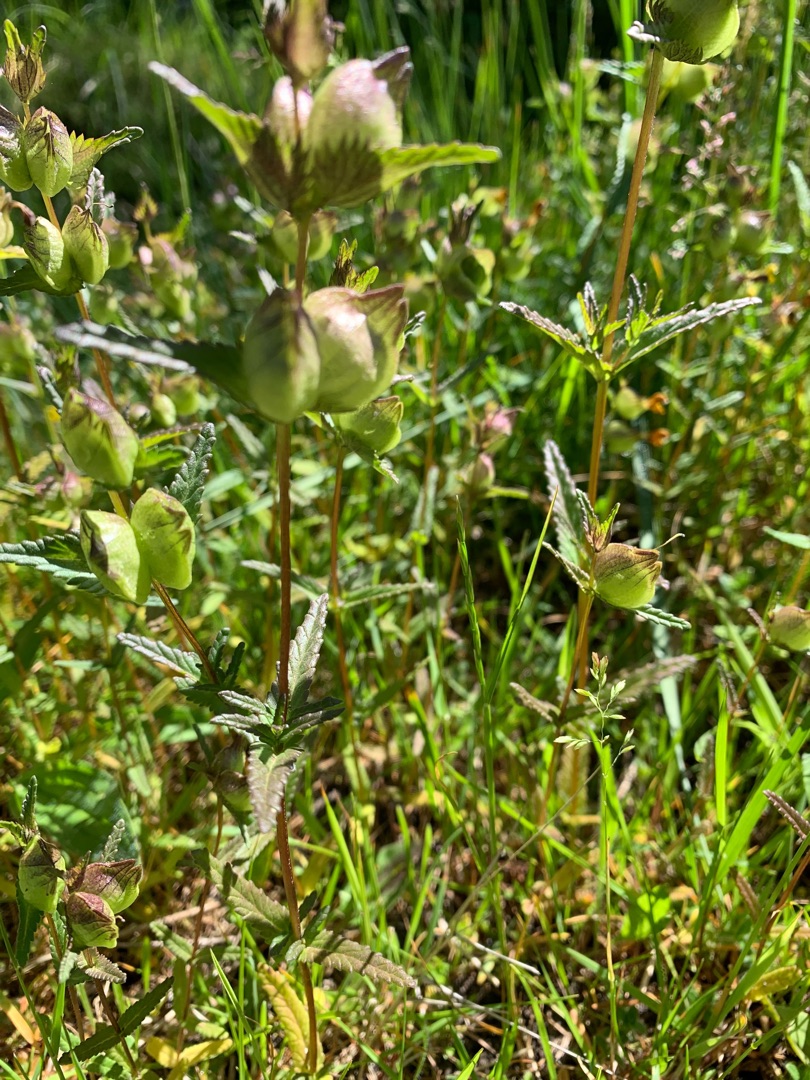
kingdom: Plantae
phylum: Tracheophyta
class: Magnoliopsida
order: Lamiales
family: Orobanchaceae
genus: Rhinanthus
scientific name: Rhinanthus minor
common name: Liden skjaller
